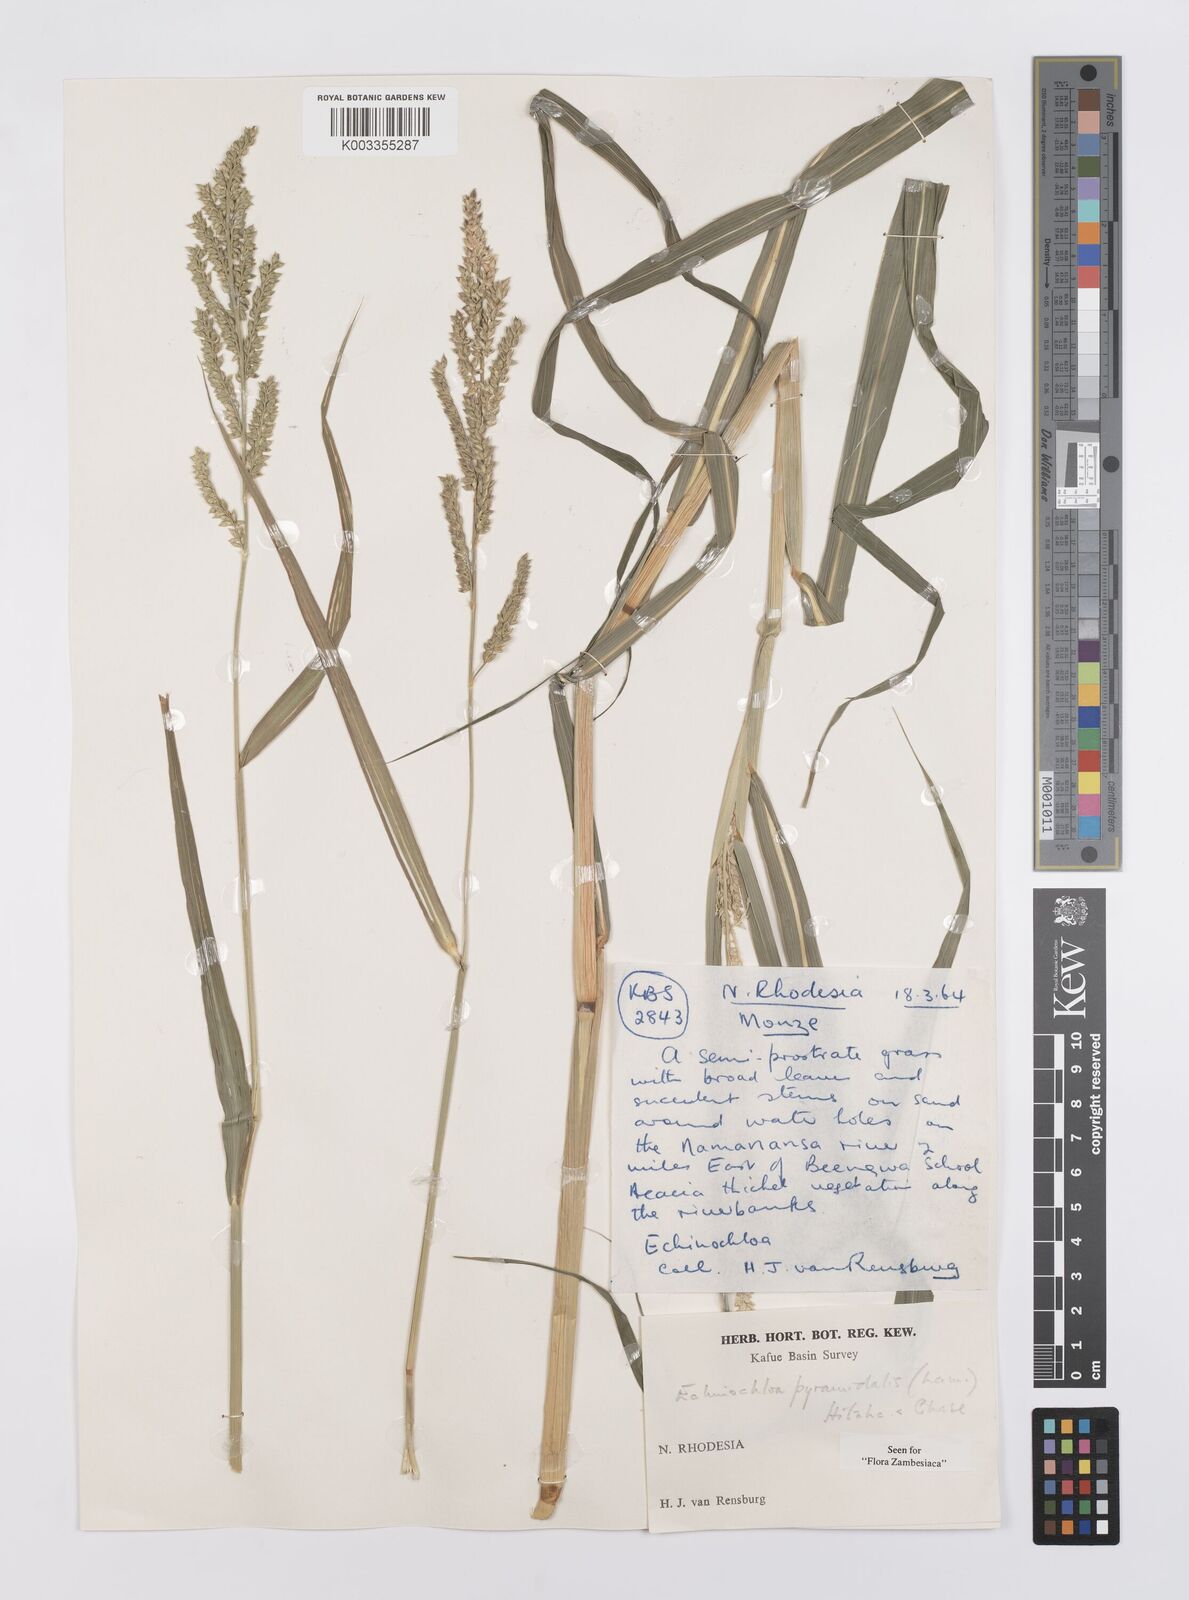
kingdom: Plantae
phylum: Tracheophyta
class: Liliopsida
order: Poales
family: Poaceae
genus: Echinochloa
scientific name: Echinochloa pyramidalis
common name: Antelope grass
